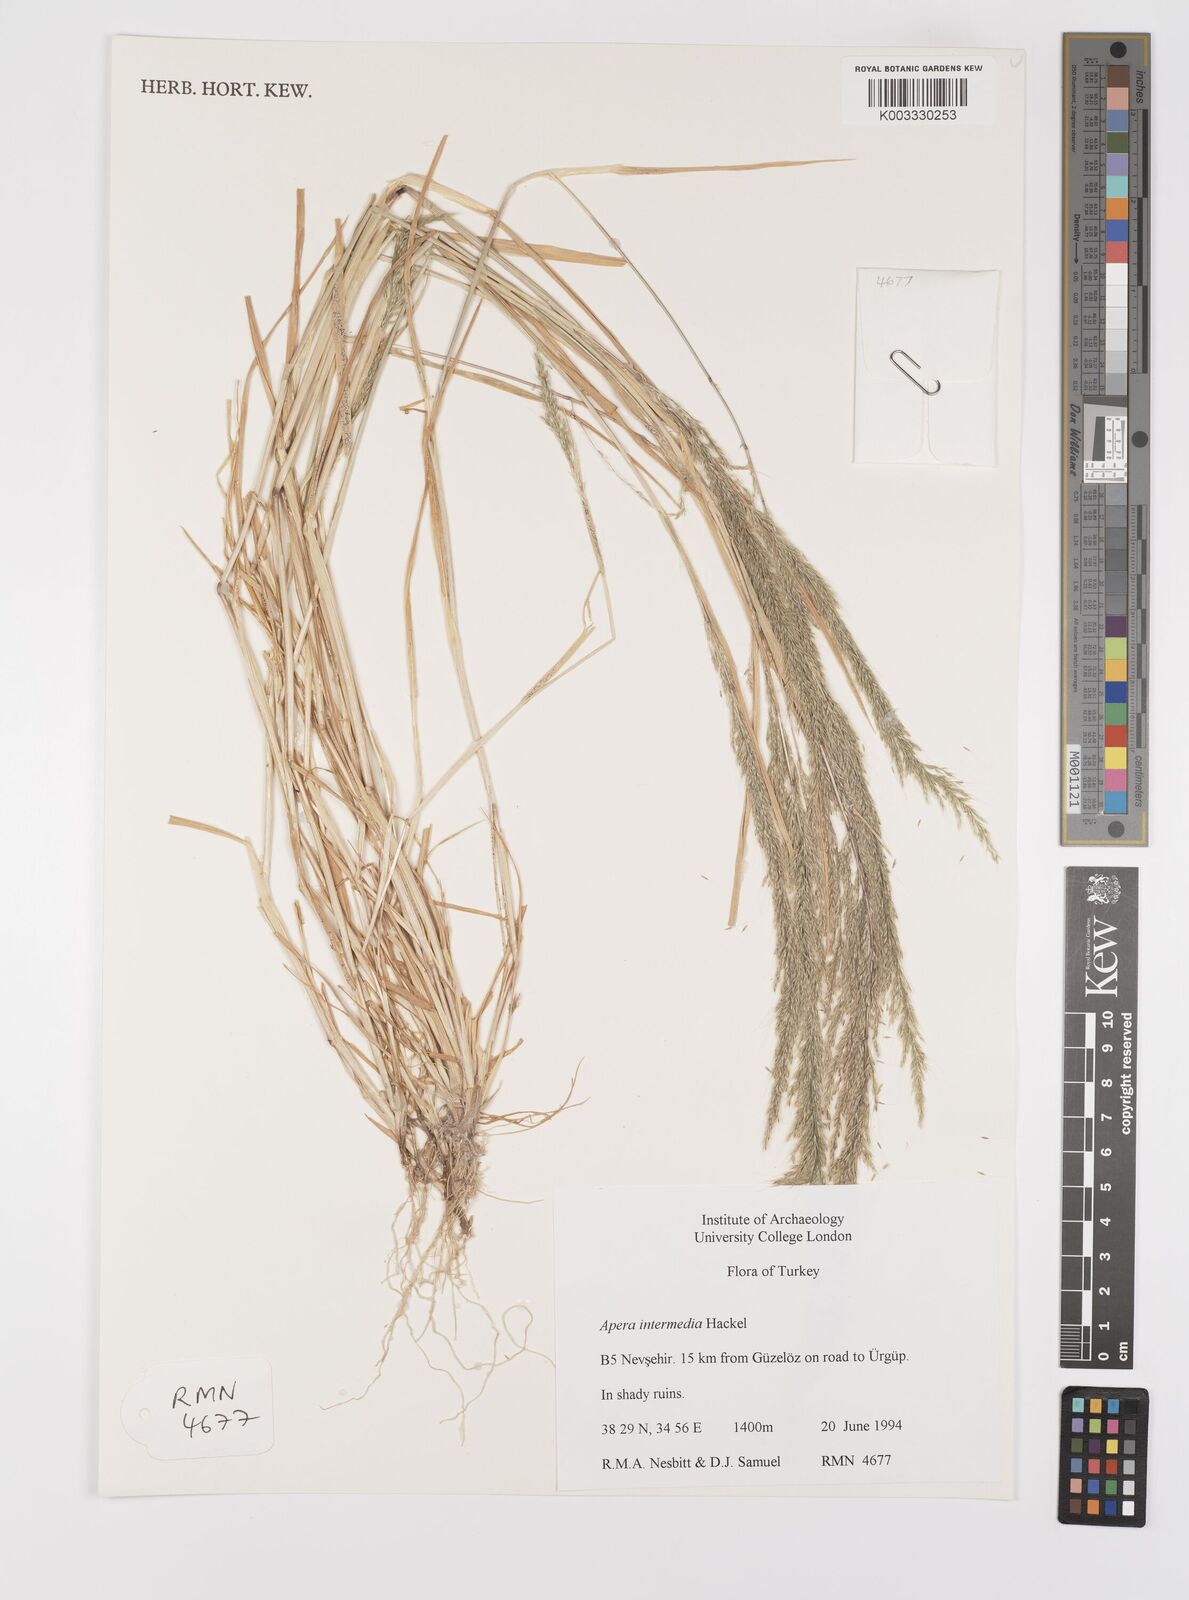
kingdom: Plantae
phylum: Tracheophyta
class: Liliopsida
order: Poales
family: Poaceae
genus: Apera
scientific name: Apera intermedia
